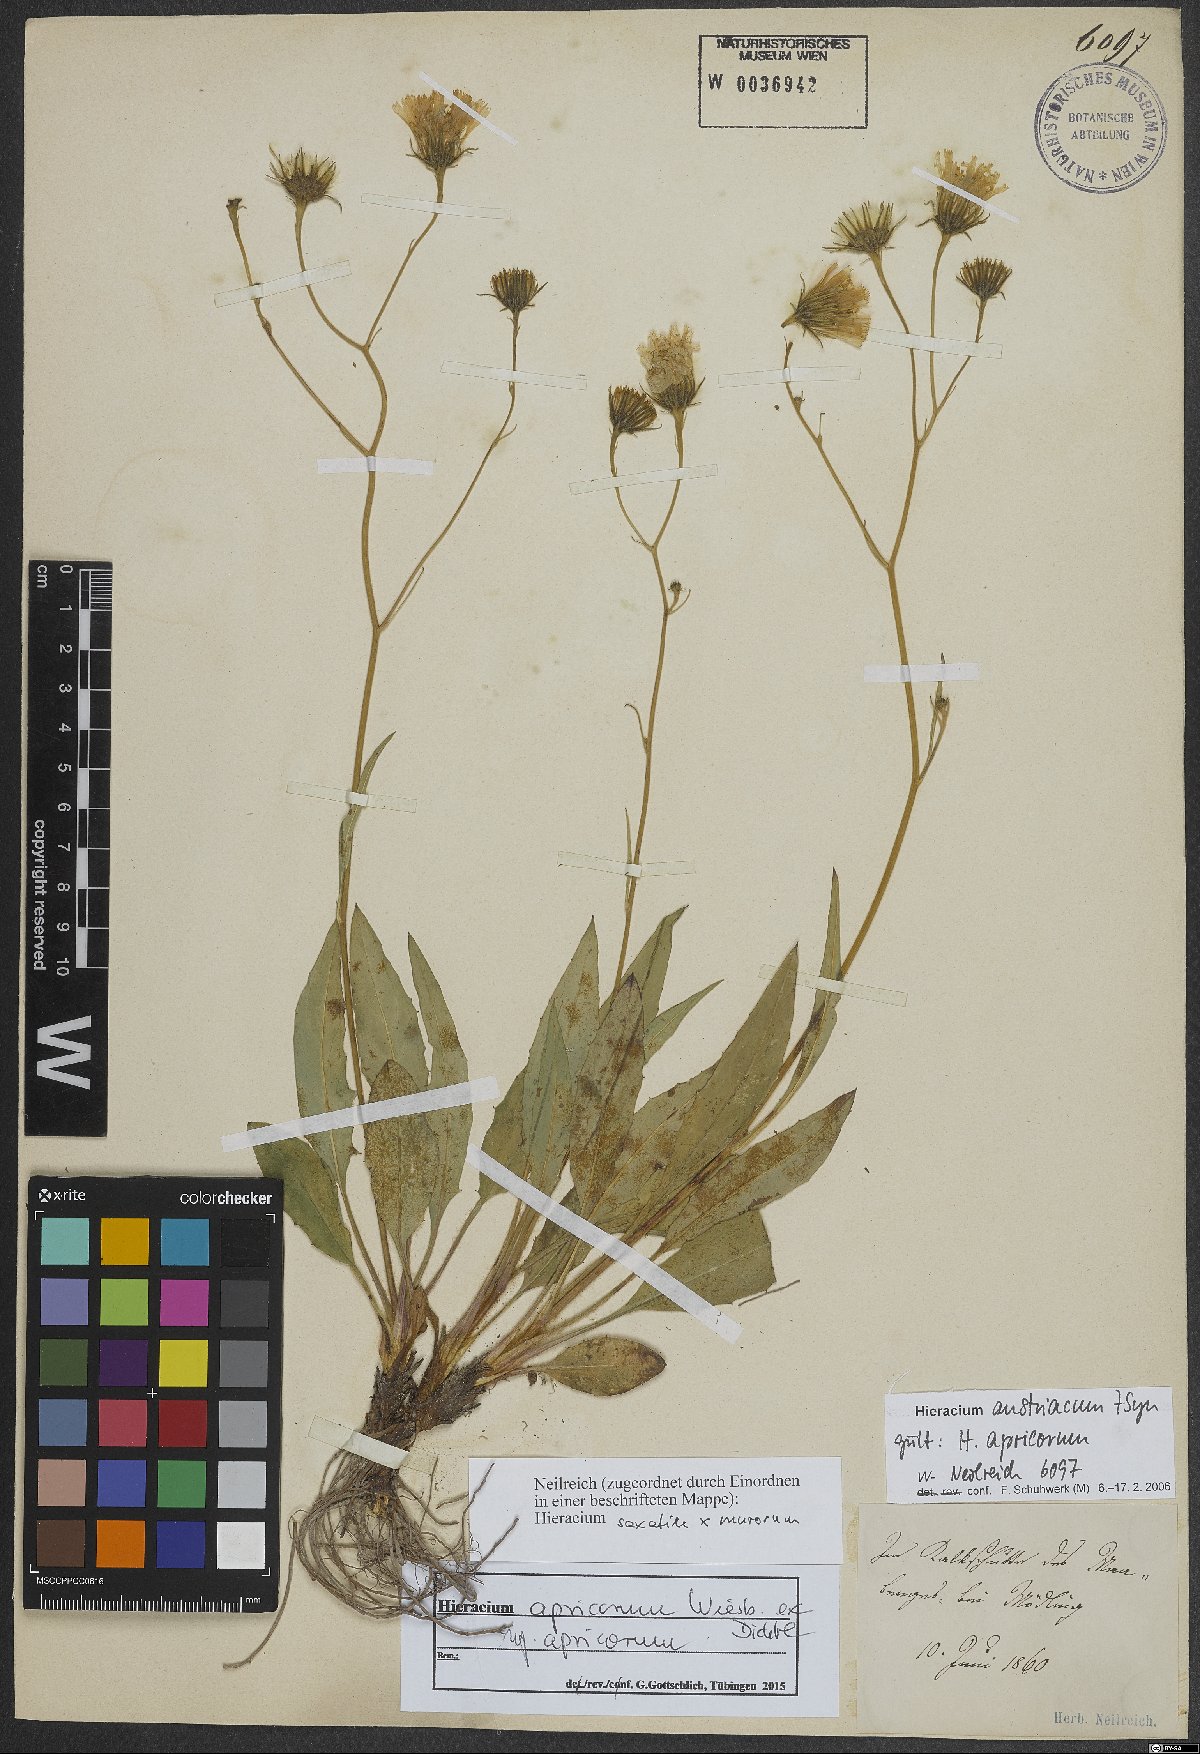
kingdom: Plantae
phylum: Tracheophyta
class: Magnoliopsida
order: Asterales
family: Asteraceae
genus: Hieracium
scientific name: Hieracium apricorum
